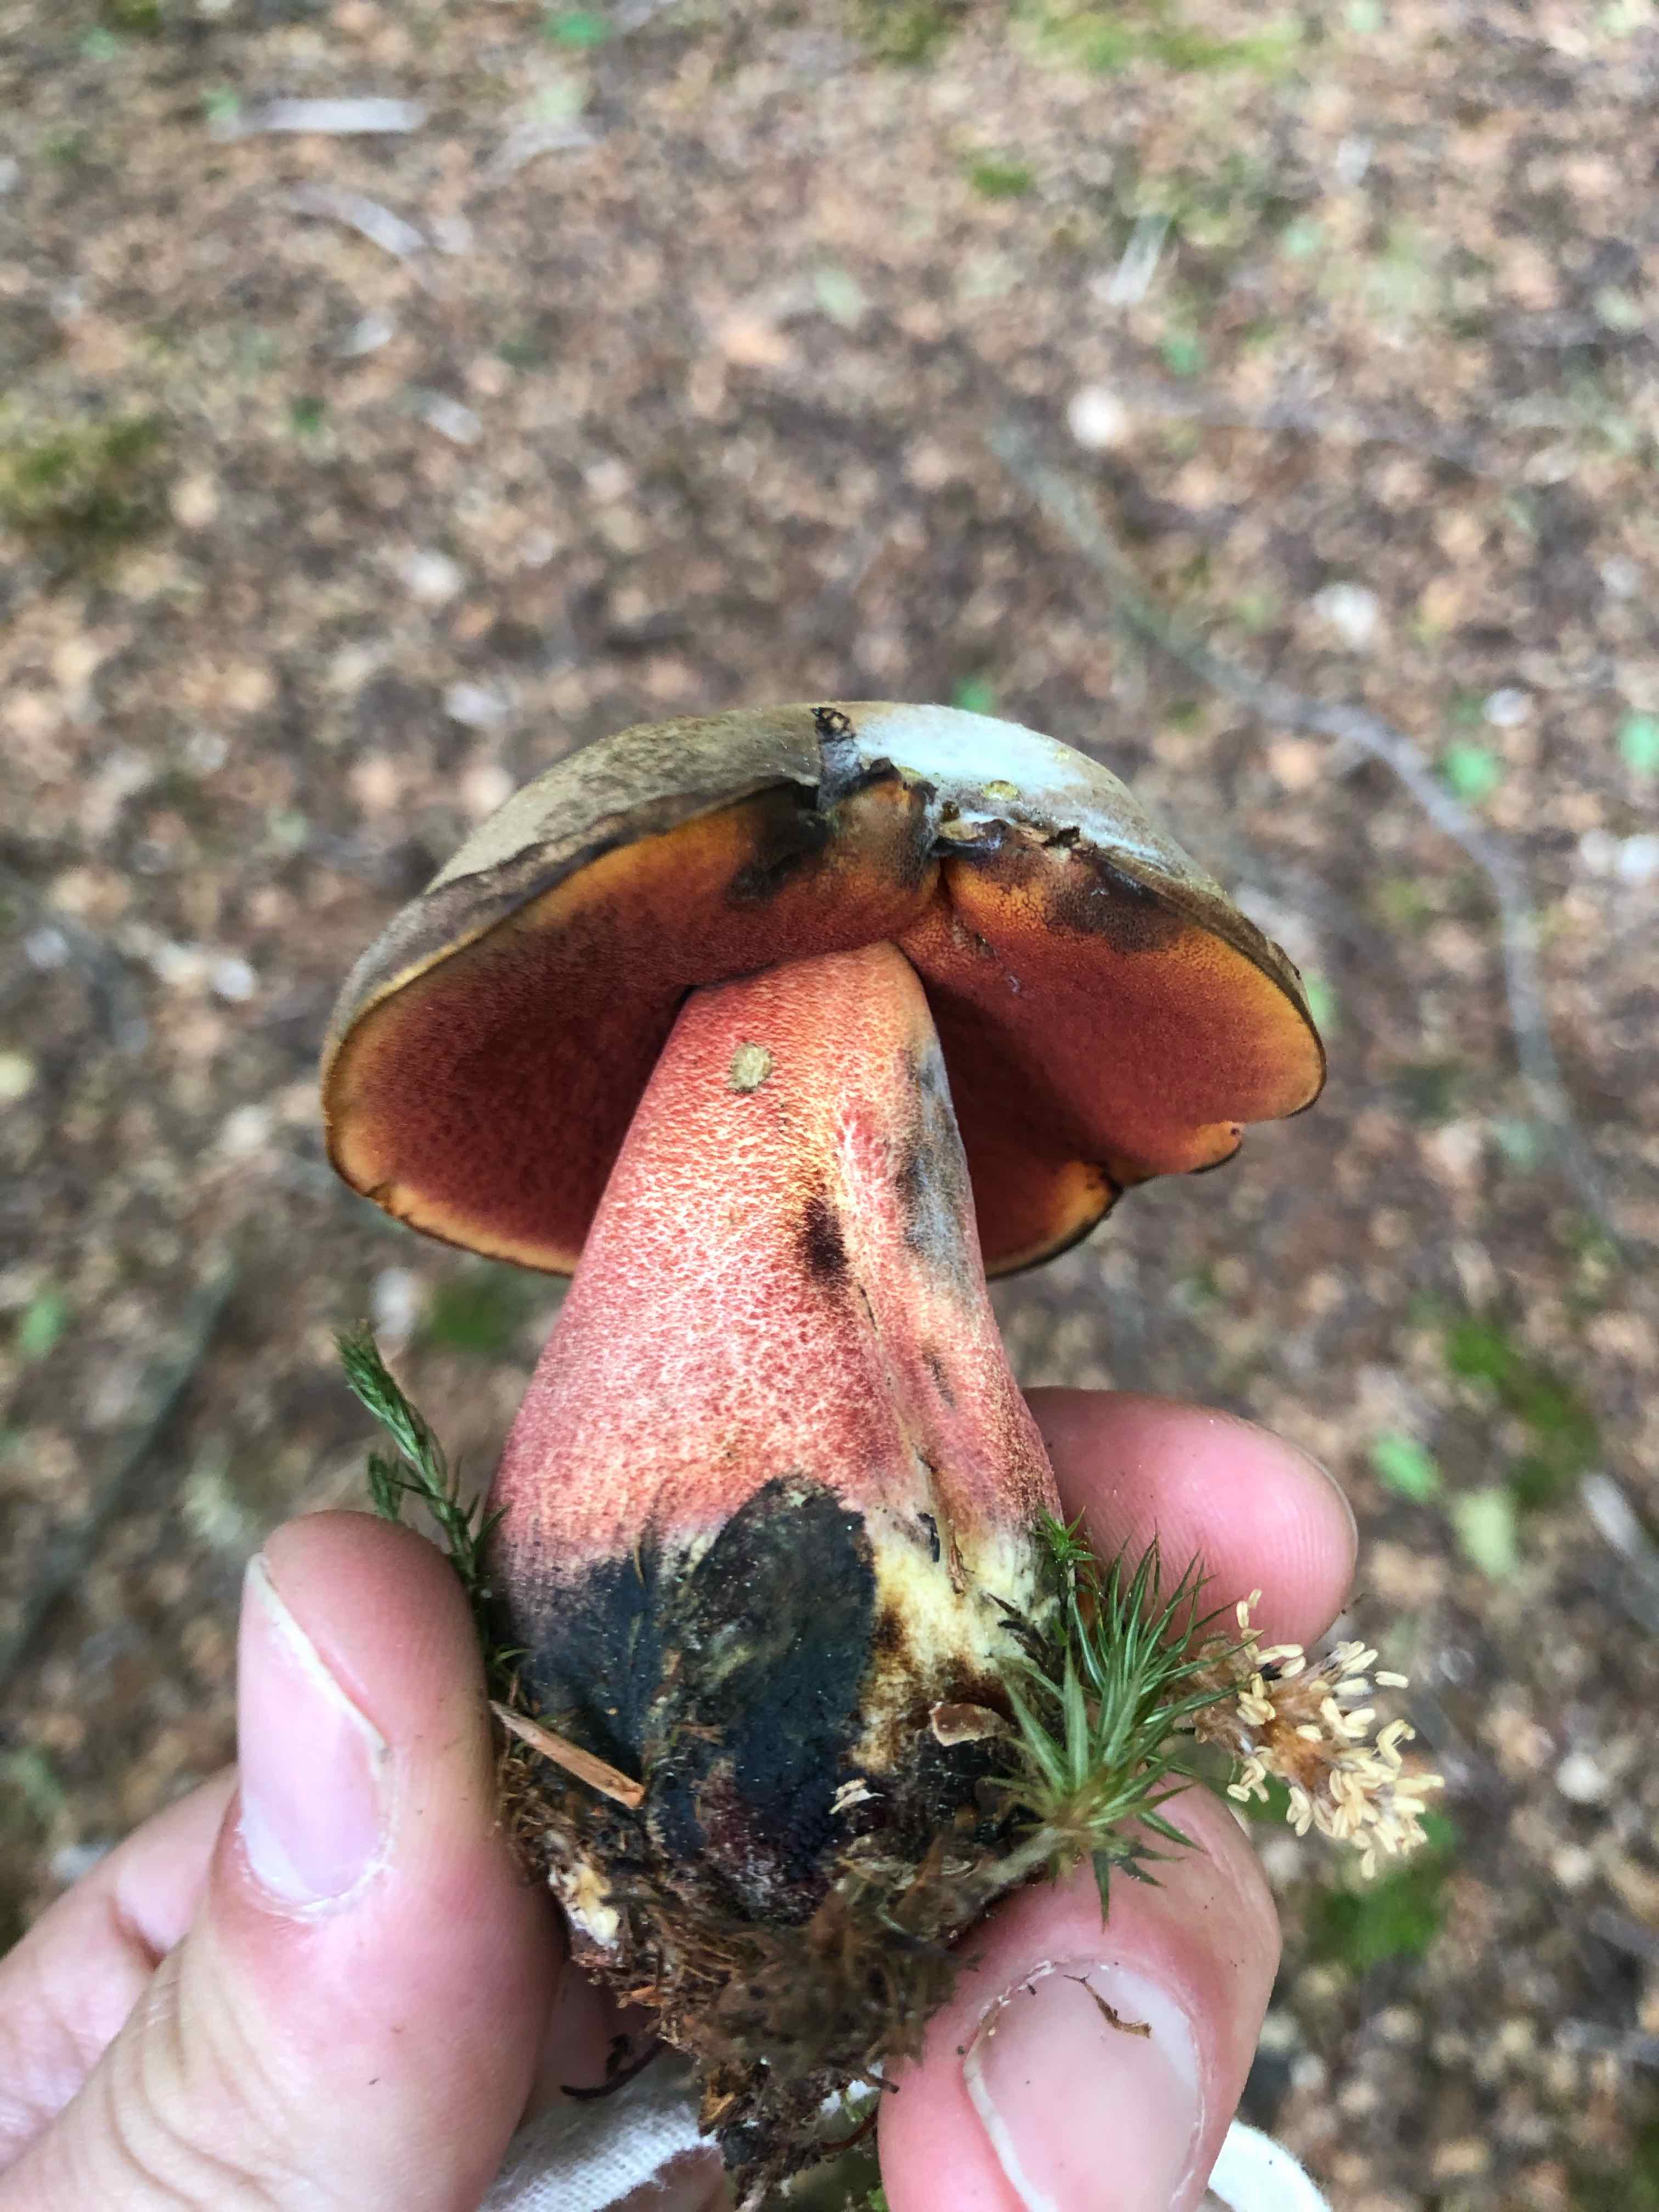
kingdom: Fungi
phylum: Basidiomycota
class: Agaricomycetes
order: Boletales
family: Boletaceae
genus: Neoboletus
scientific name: Neoboletus erythropus
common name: punktstokket indigorørhat
